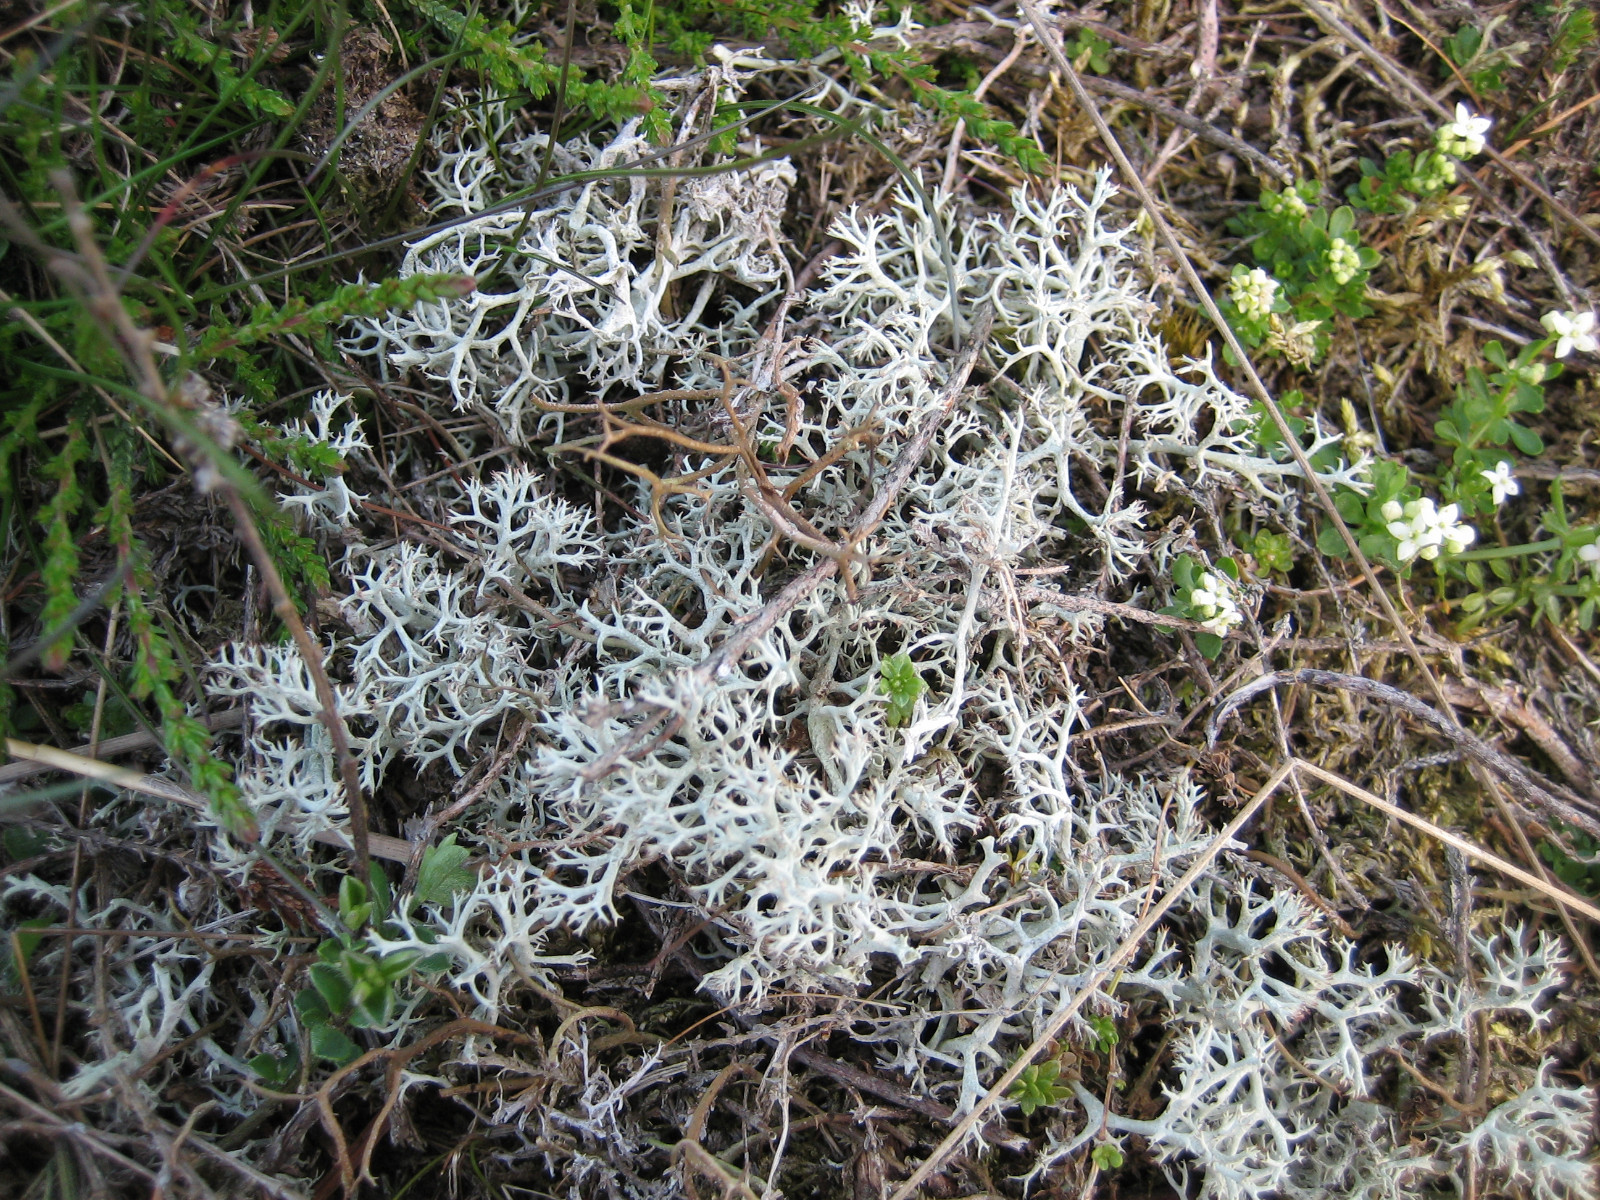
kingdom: Fungi
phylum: Ascomycota
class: Lecanoromycetes
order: Lecanorales
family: Cladoniaceae
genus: Cladonia
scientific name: Cladonia ciliata
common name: spinkel rensdyrlav
